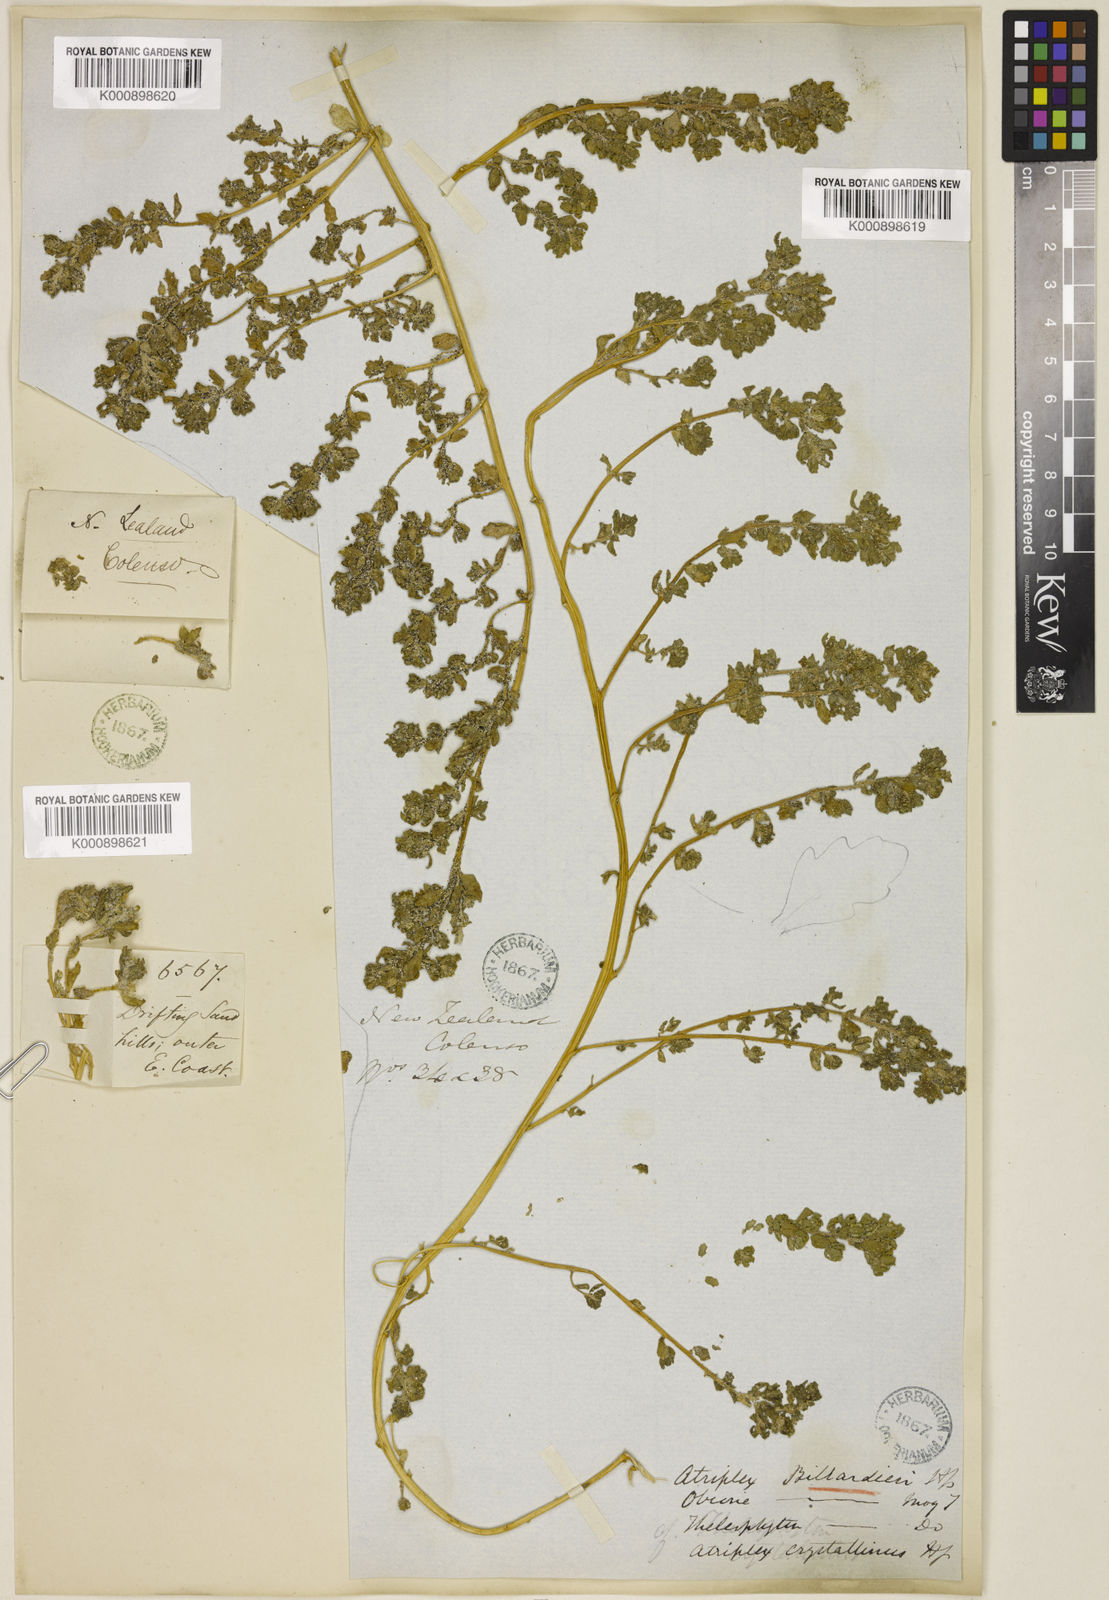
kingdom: Plantae
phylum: Tracheophyta
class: Magnoliopsida
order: Caryophyllales
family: Amaranthaceae
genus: Atriplex
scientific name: Atriplex billardierei
